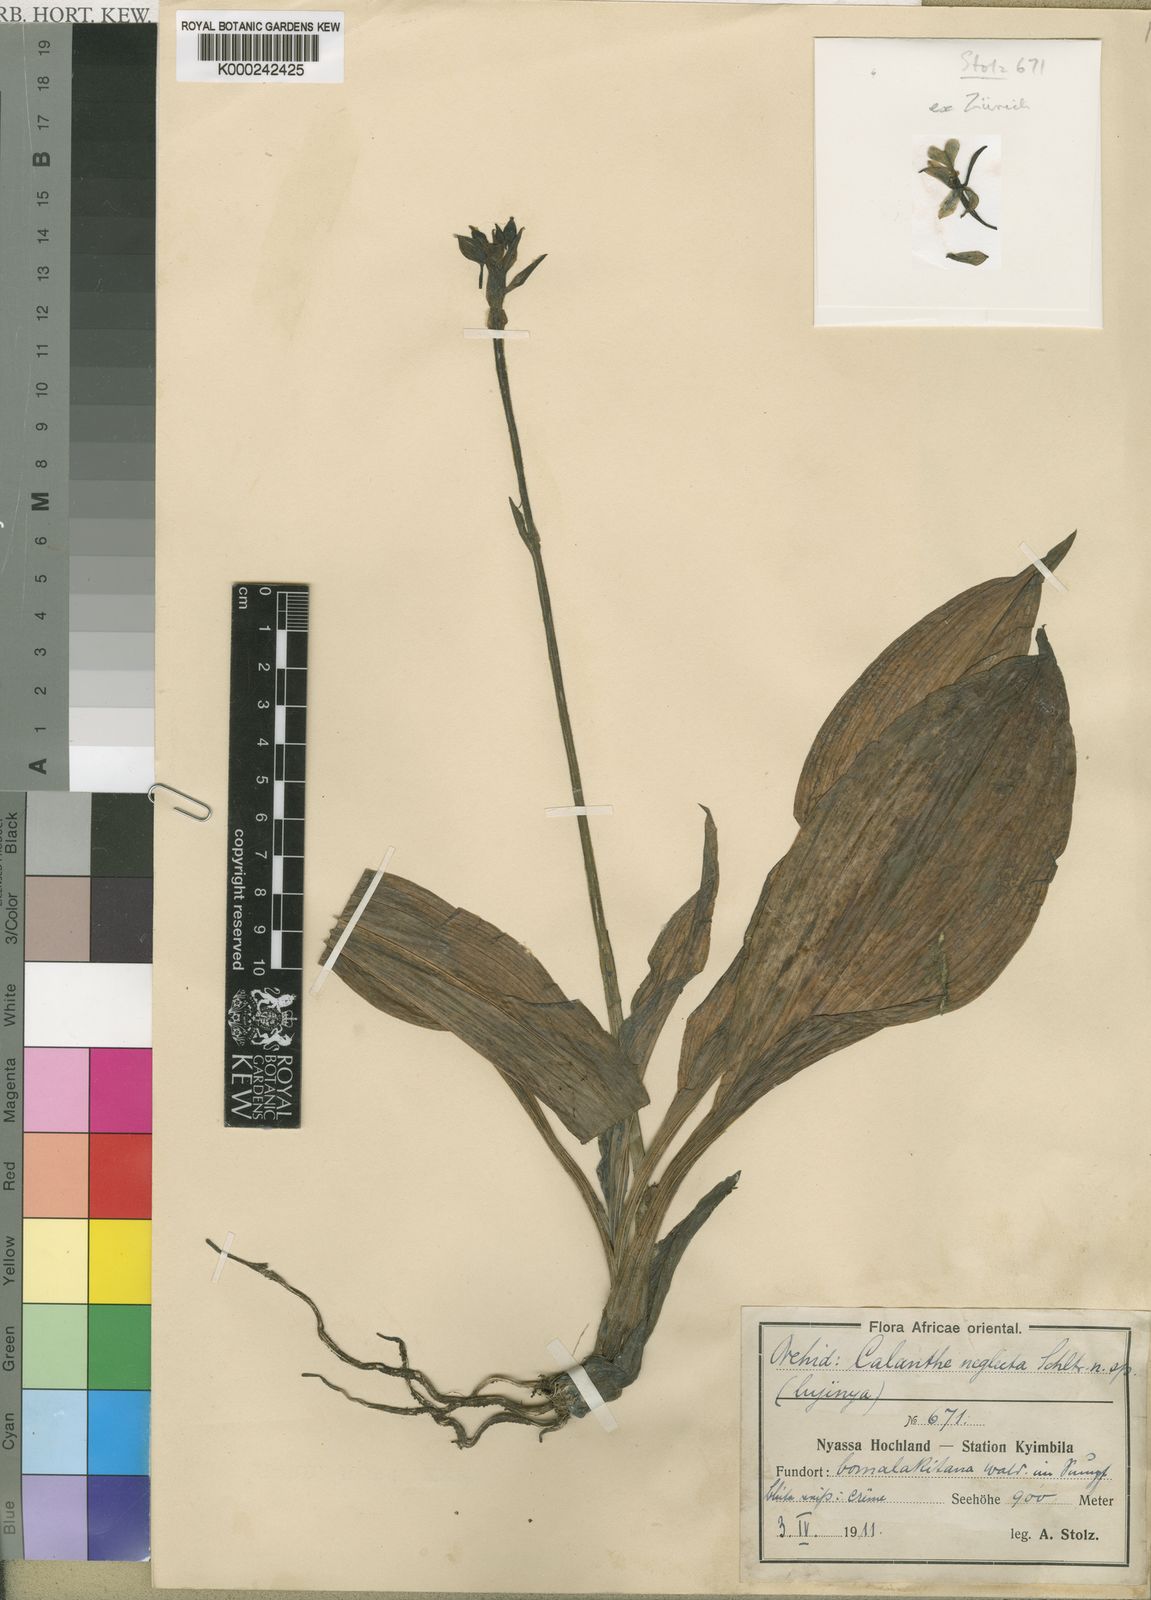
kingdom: Plantae
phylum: Tracheophyta
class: Liliopsida
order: Asparagales
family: Orchidaceae
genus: Calanthe
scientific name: Calanthe sylvatica
